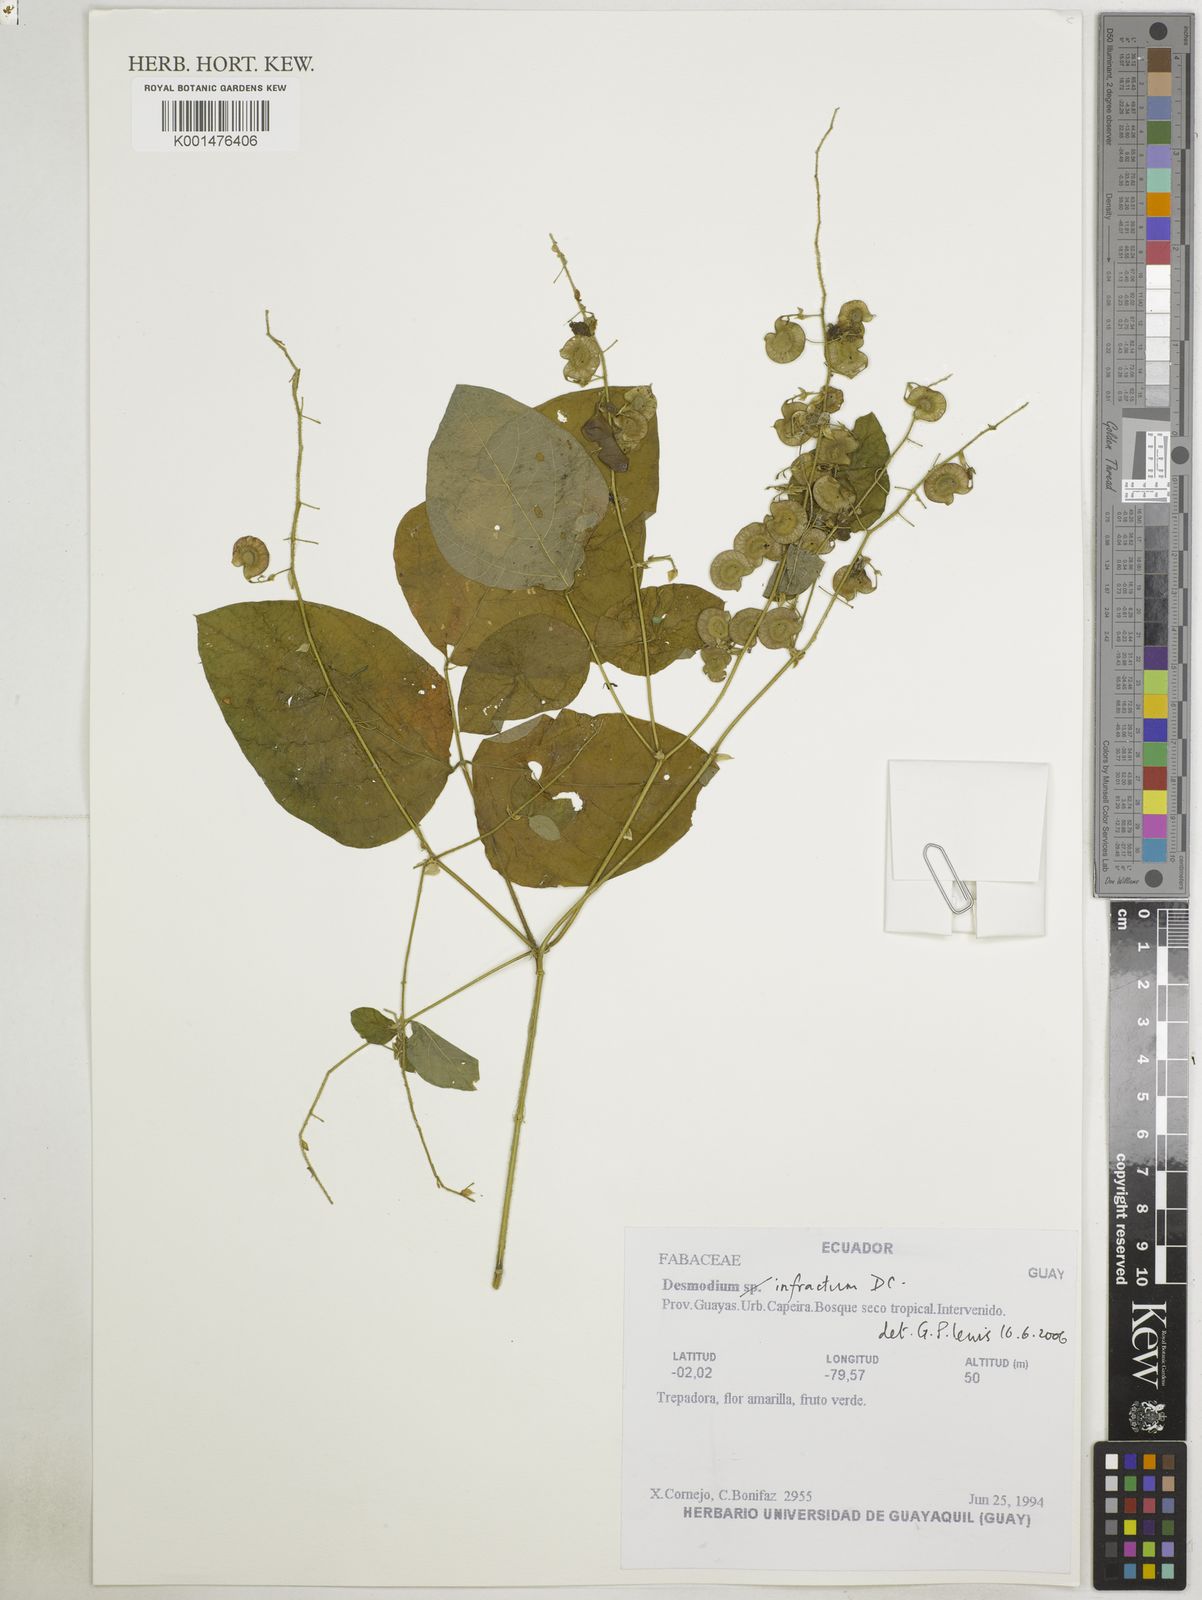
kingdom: Plantae
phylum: Tracheophyta
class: Magnoliopsida
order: Fabales
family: Fabaceae
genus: Desmodium
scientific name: Desmodium infractum
